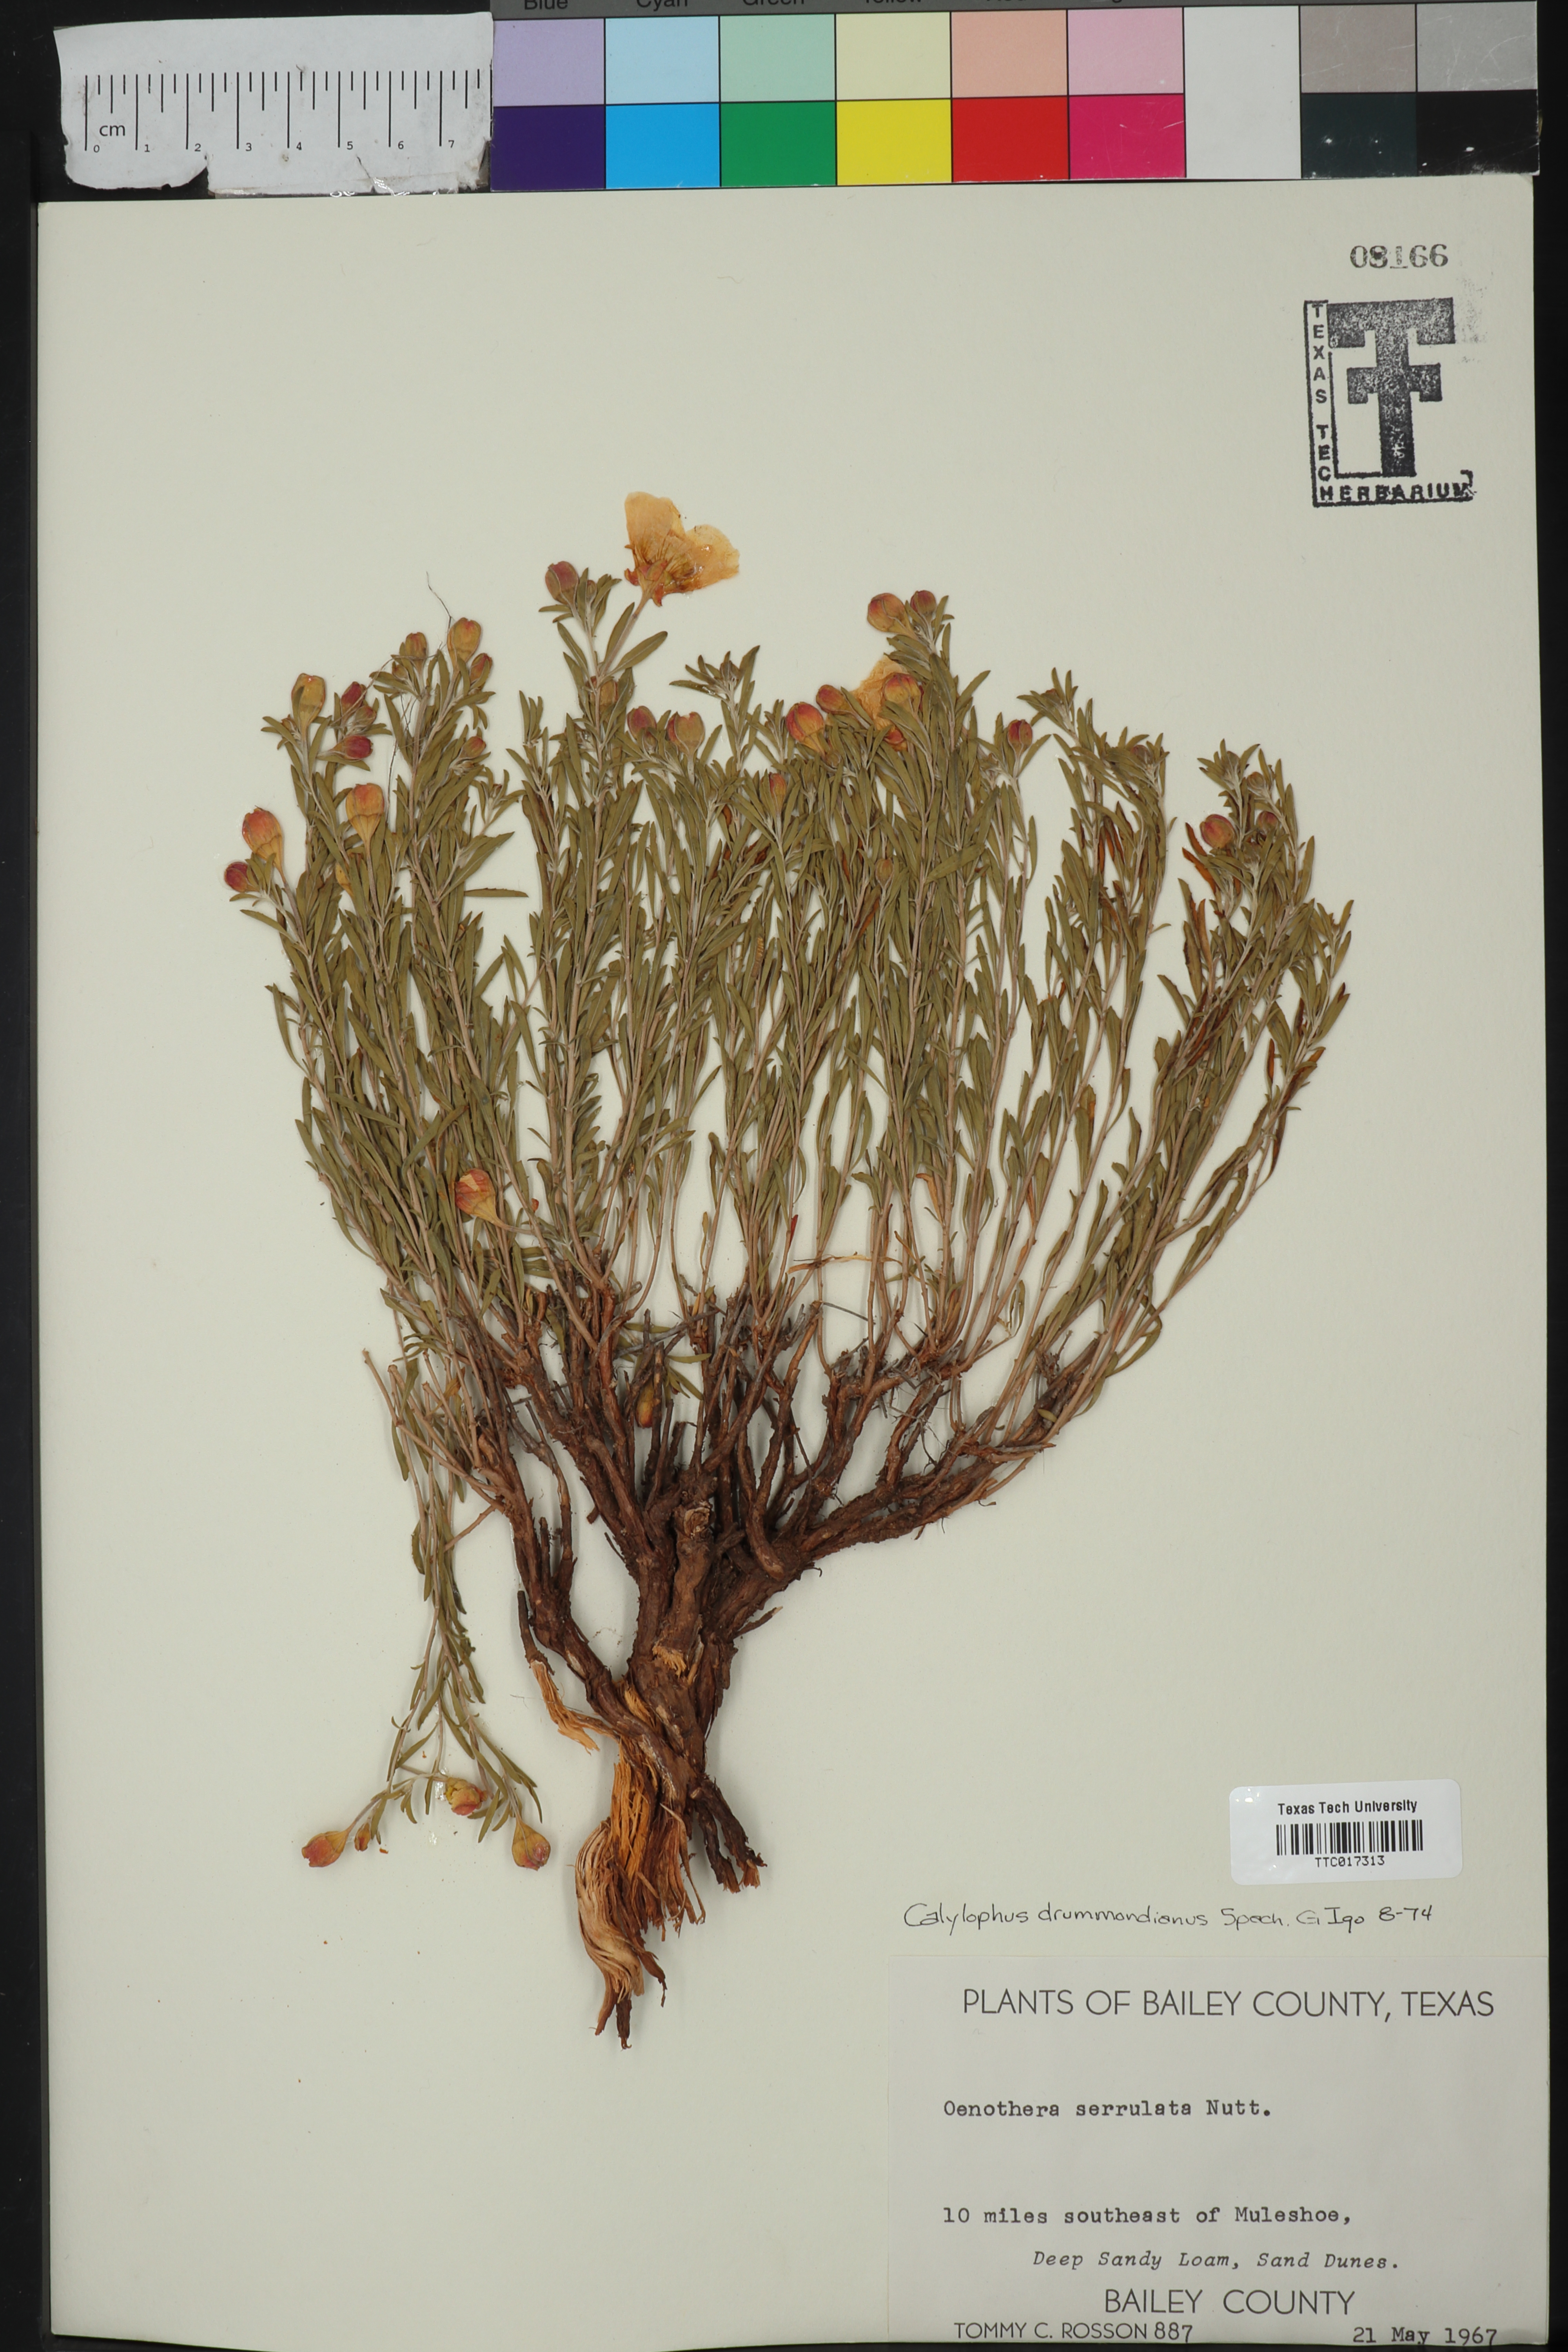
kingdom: Plantae
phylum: Tracheophyta
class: Magnoliopsida
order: Myrtales
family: Onagraceae
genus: Oenothera
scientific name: Oenothera serrulata
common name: Half-shrub calylophus
